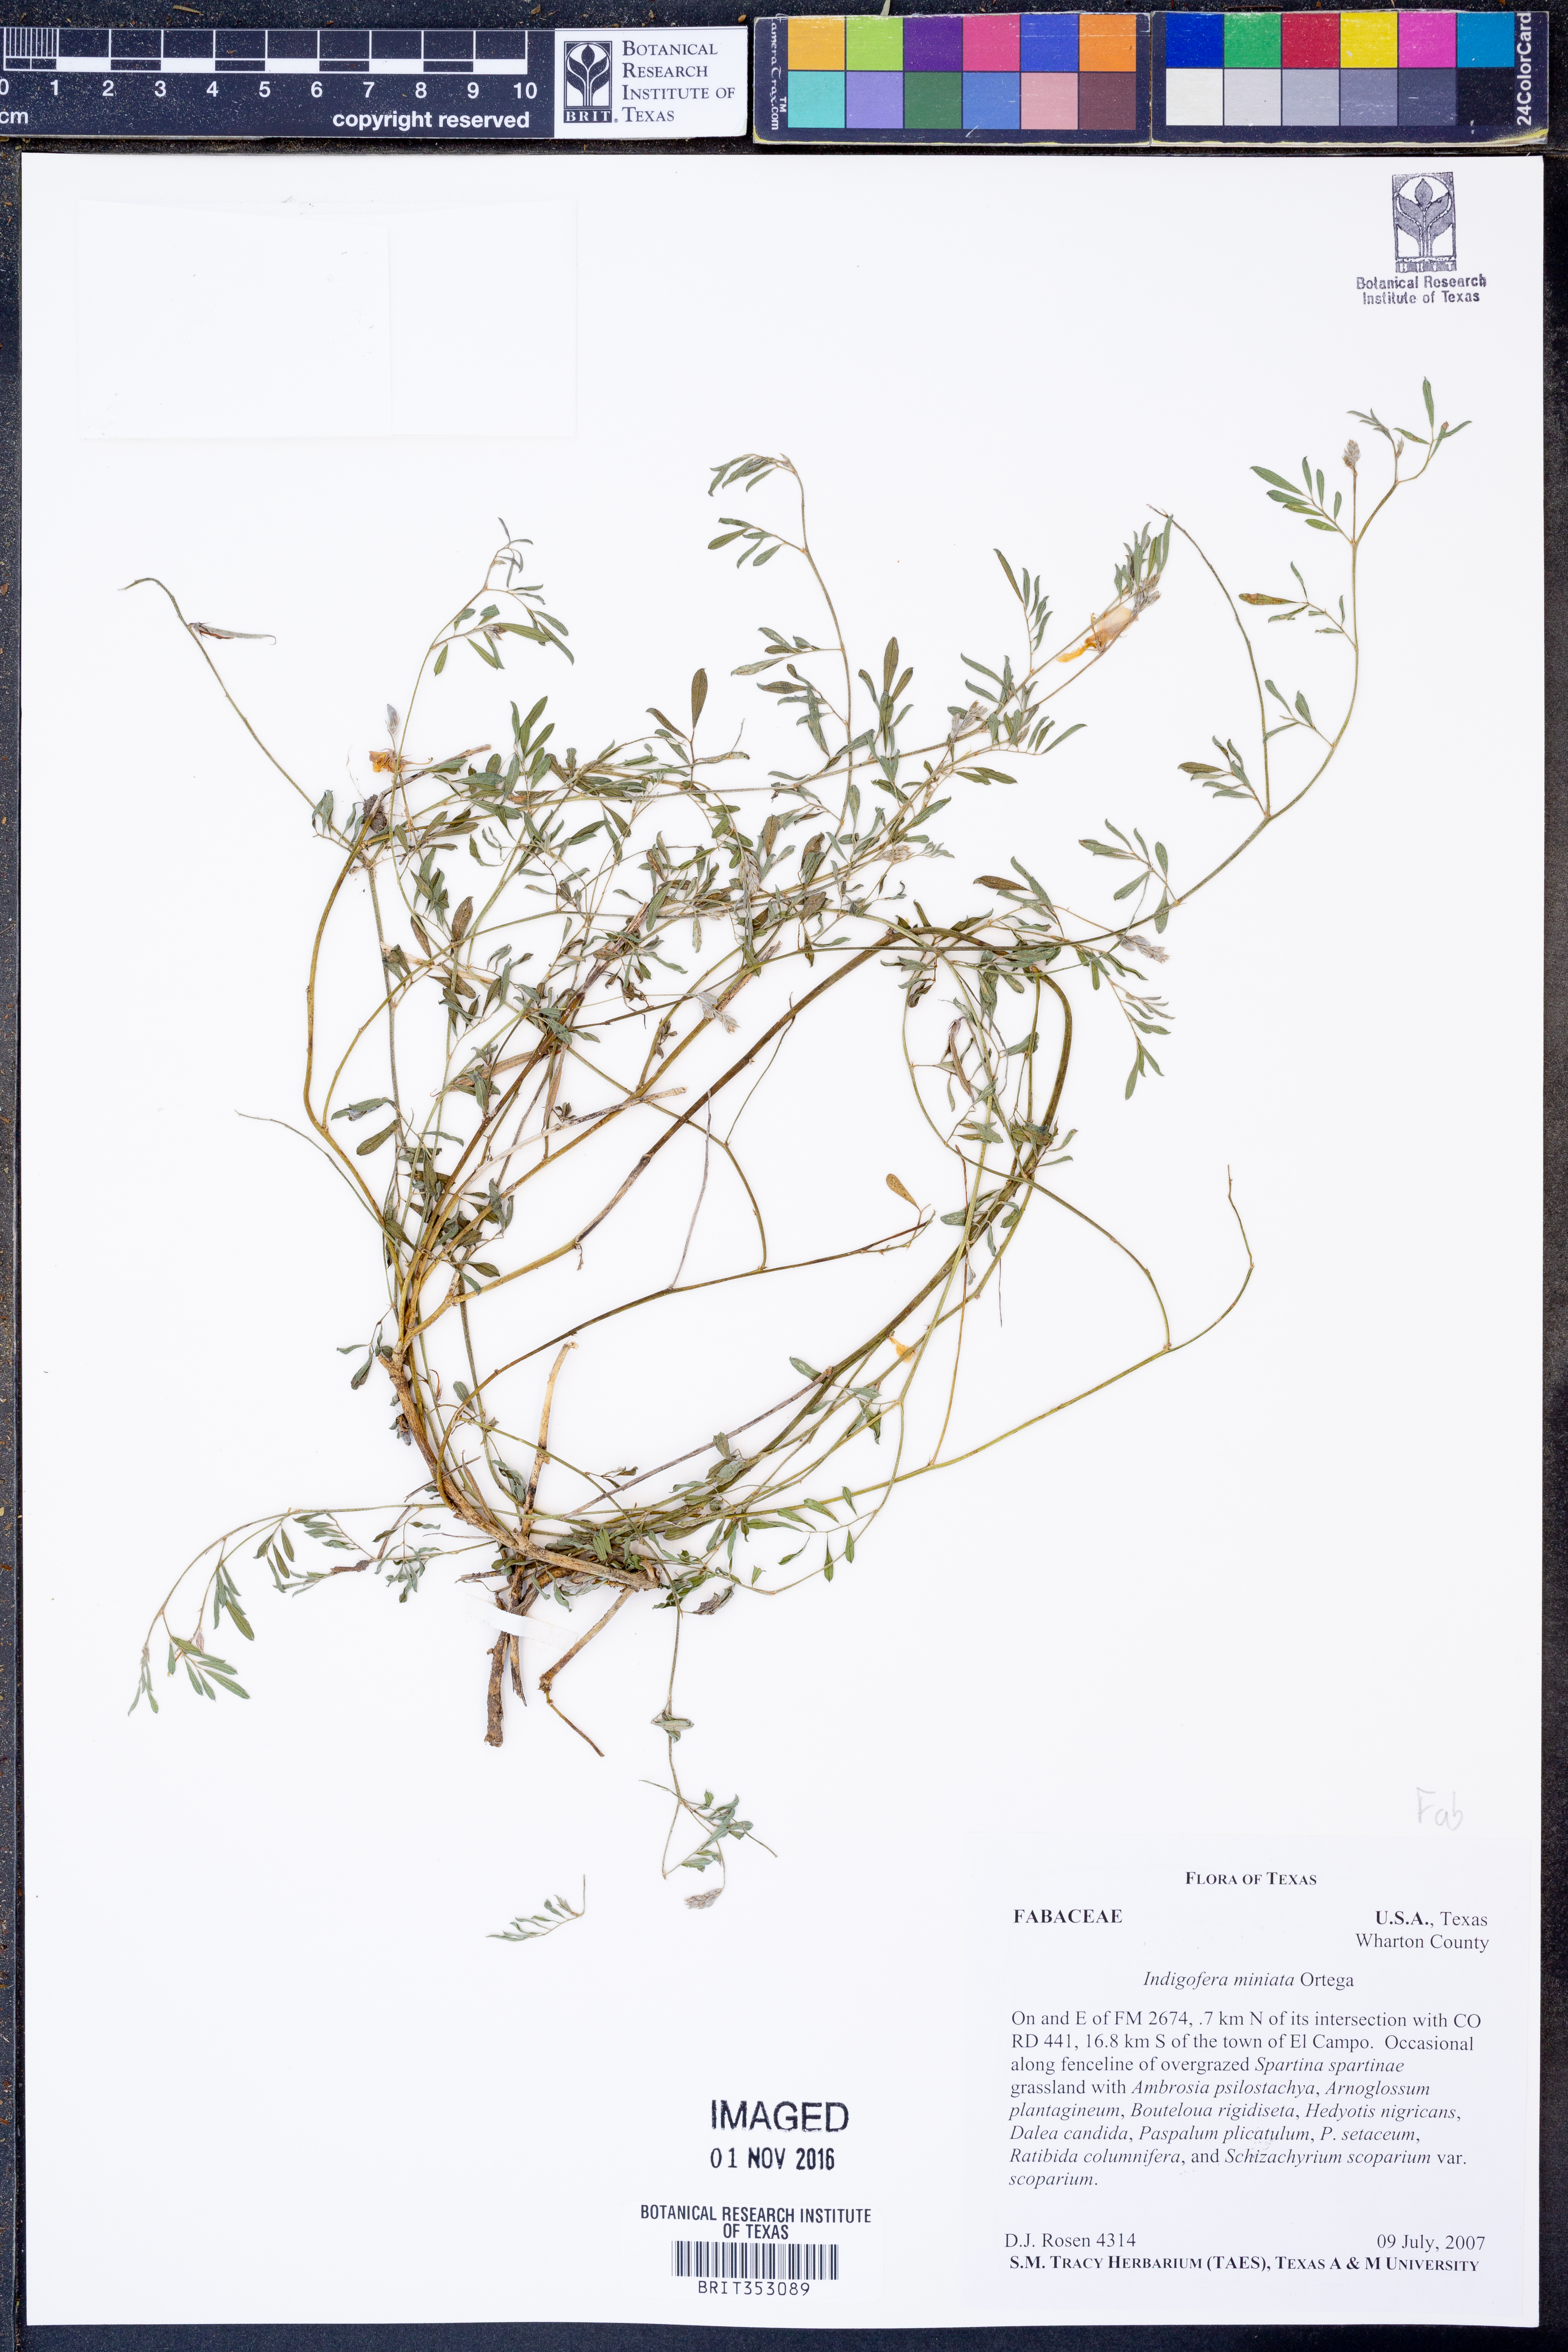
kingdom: Plantae
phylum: Tracheophyta
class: Magnoliopsida
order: Fabales
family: Fabaceae
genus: Indigofera
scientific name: Indigofera miniata
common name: Coast indigo
